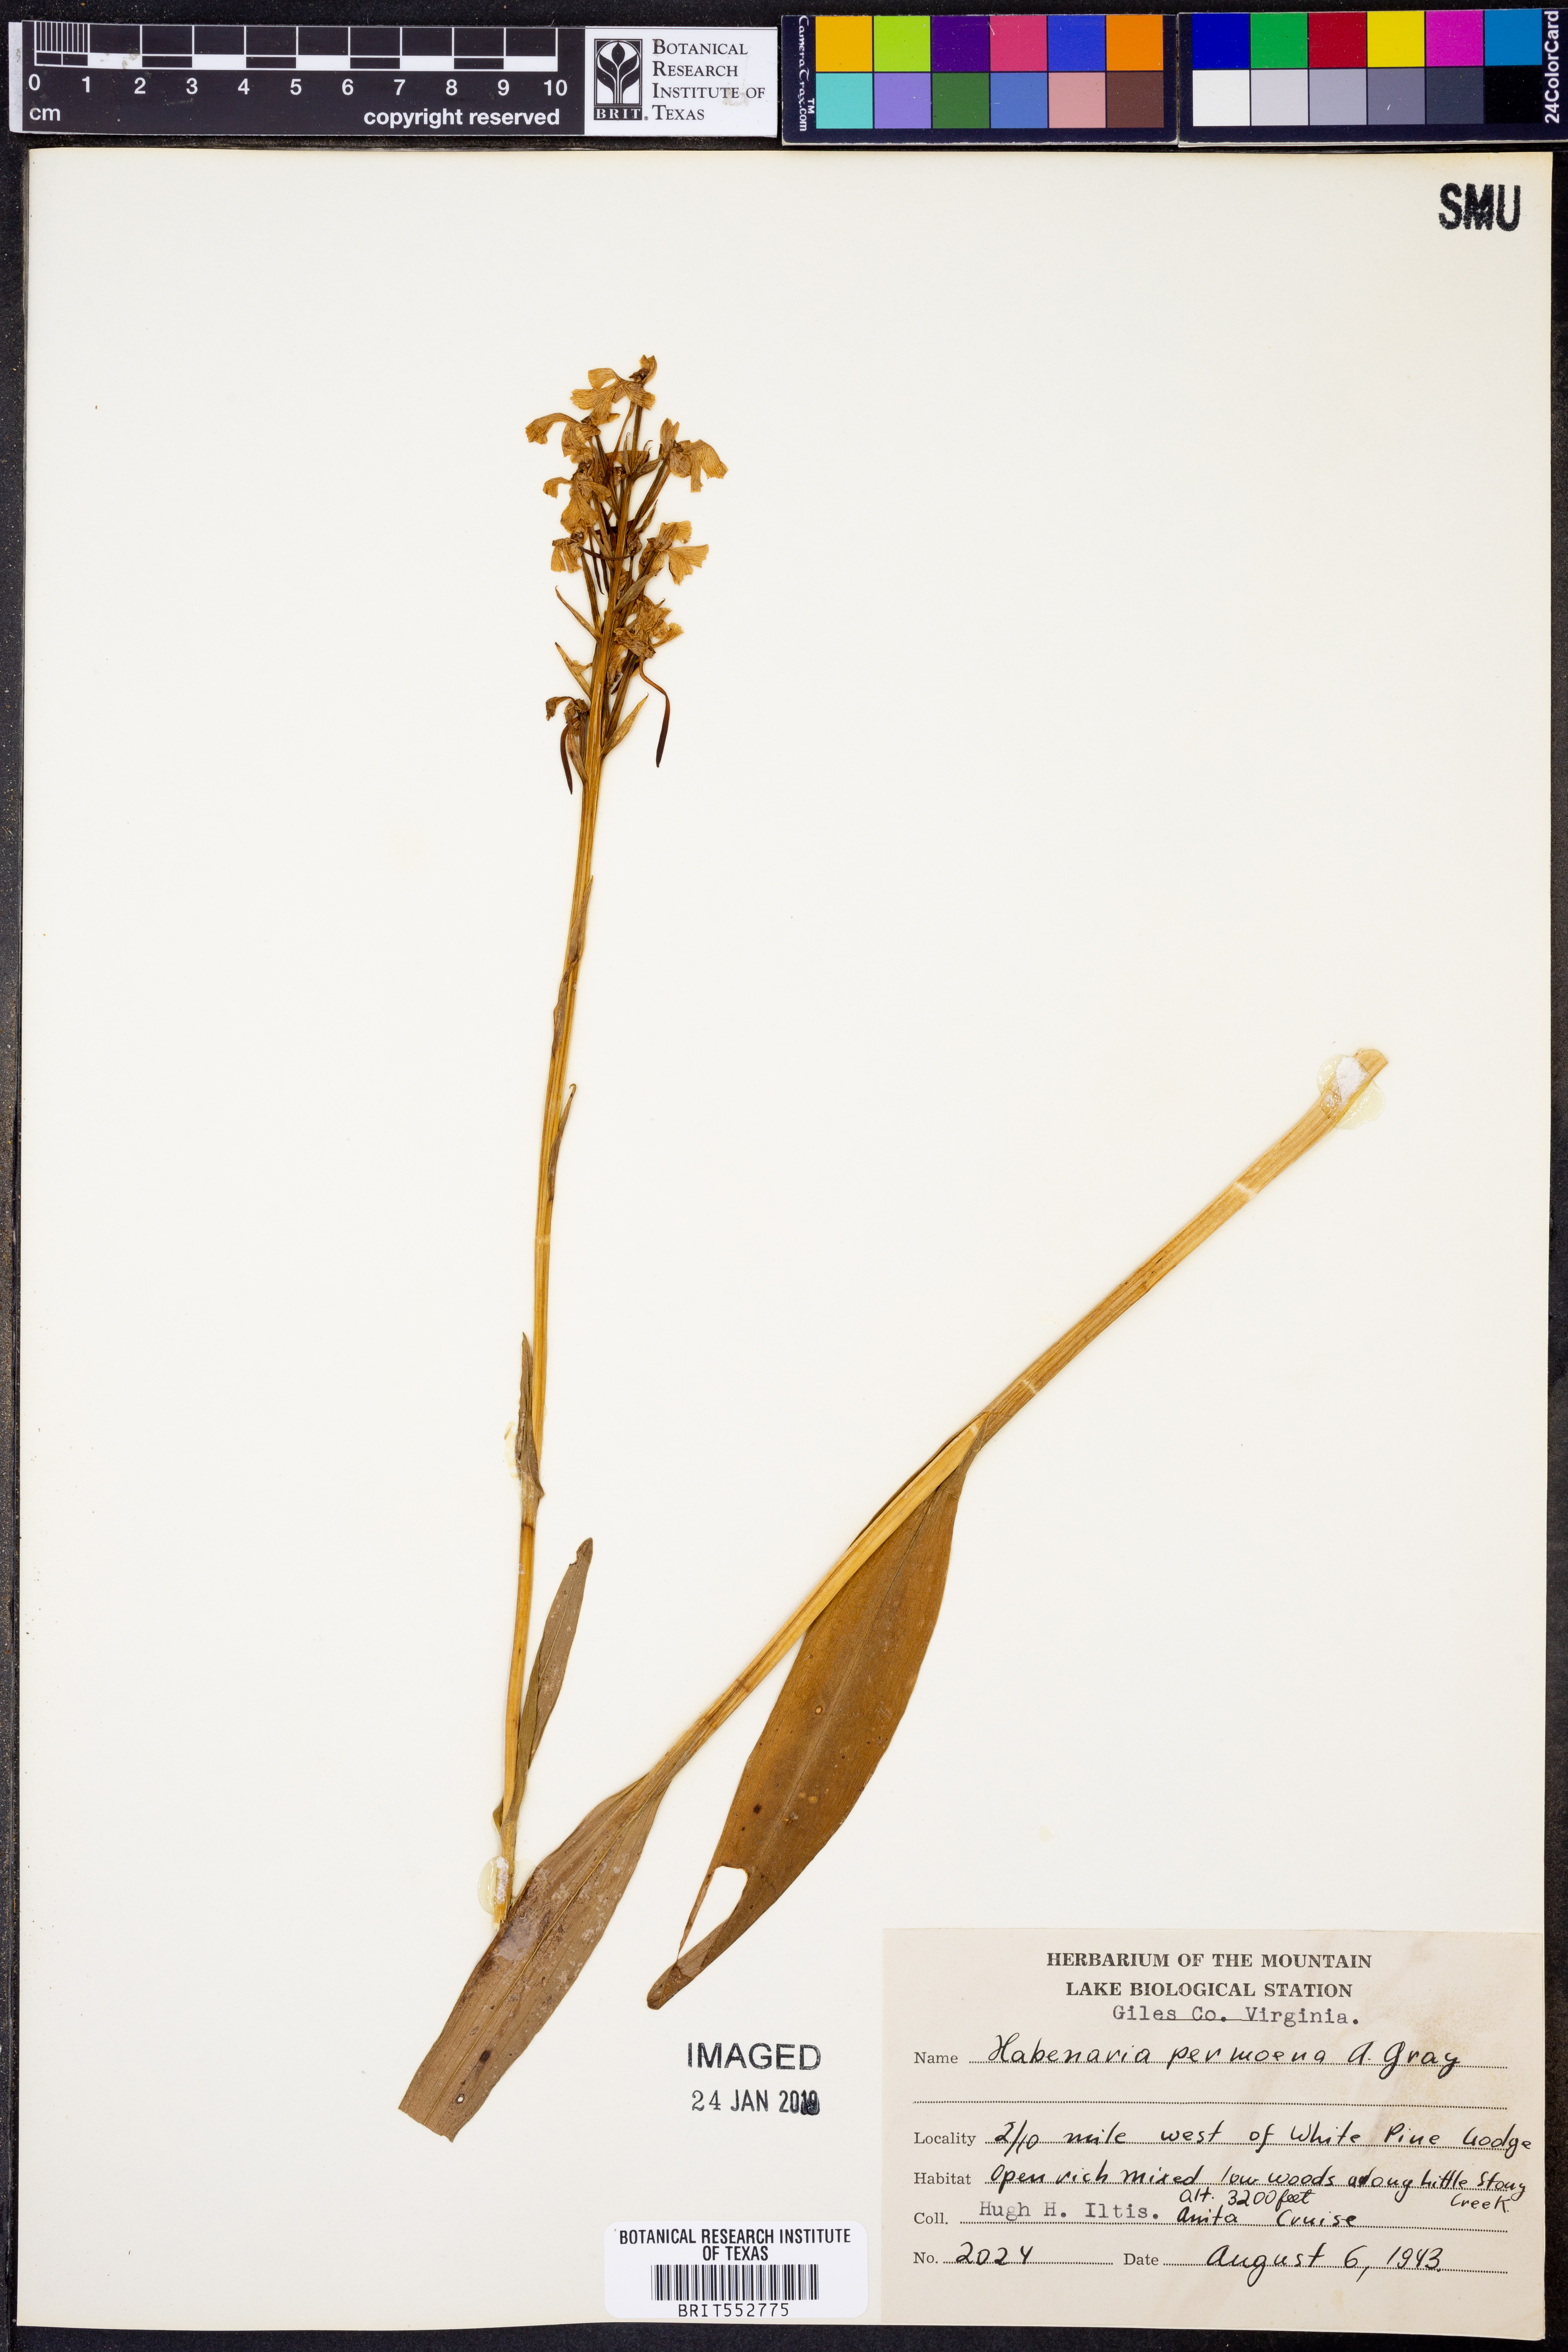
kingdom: Plantae
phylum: Tracheophyta
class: Liliopsida
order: Asparagales
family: Orchidaceae
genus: Platanthera
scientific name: Platanthera peramoena
